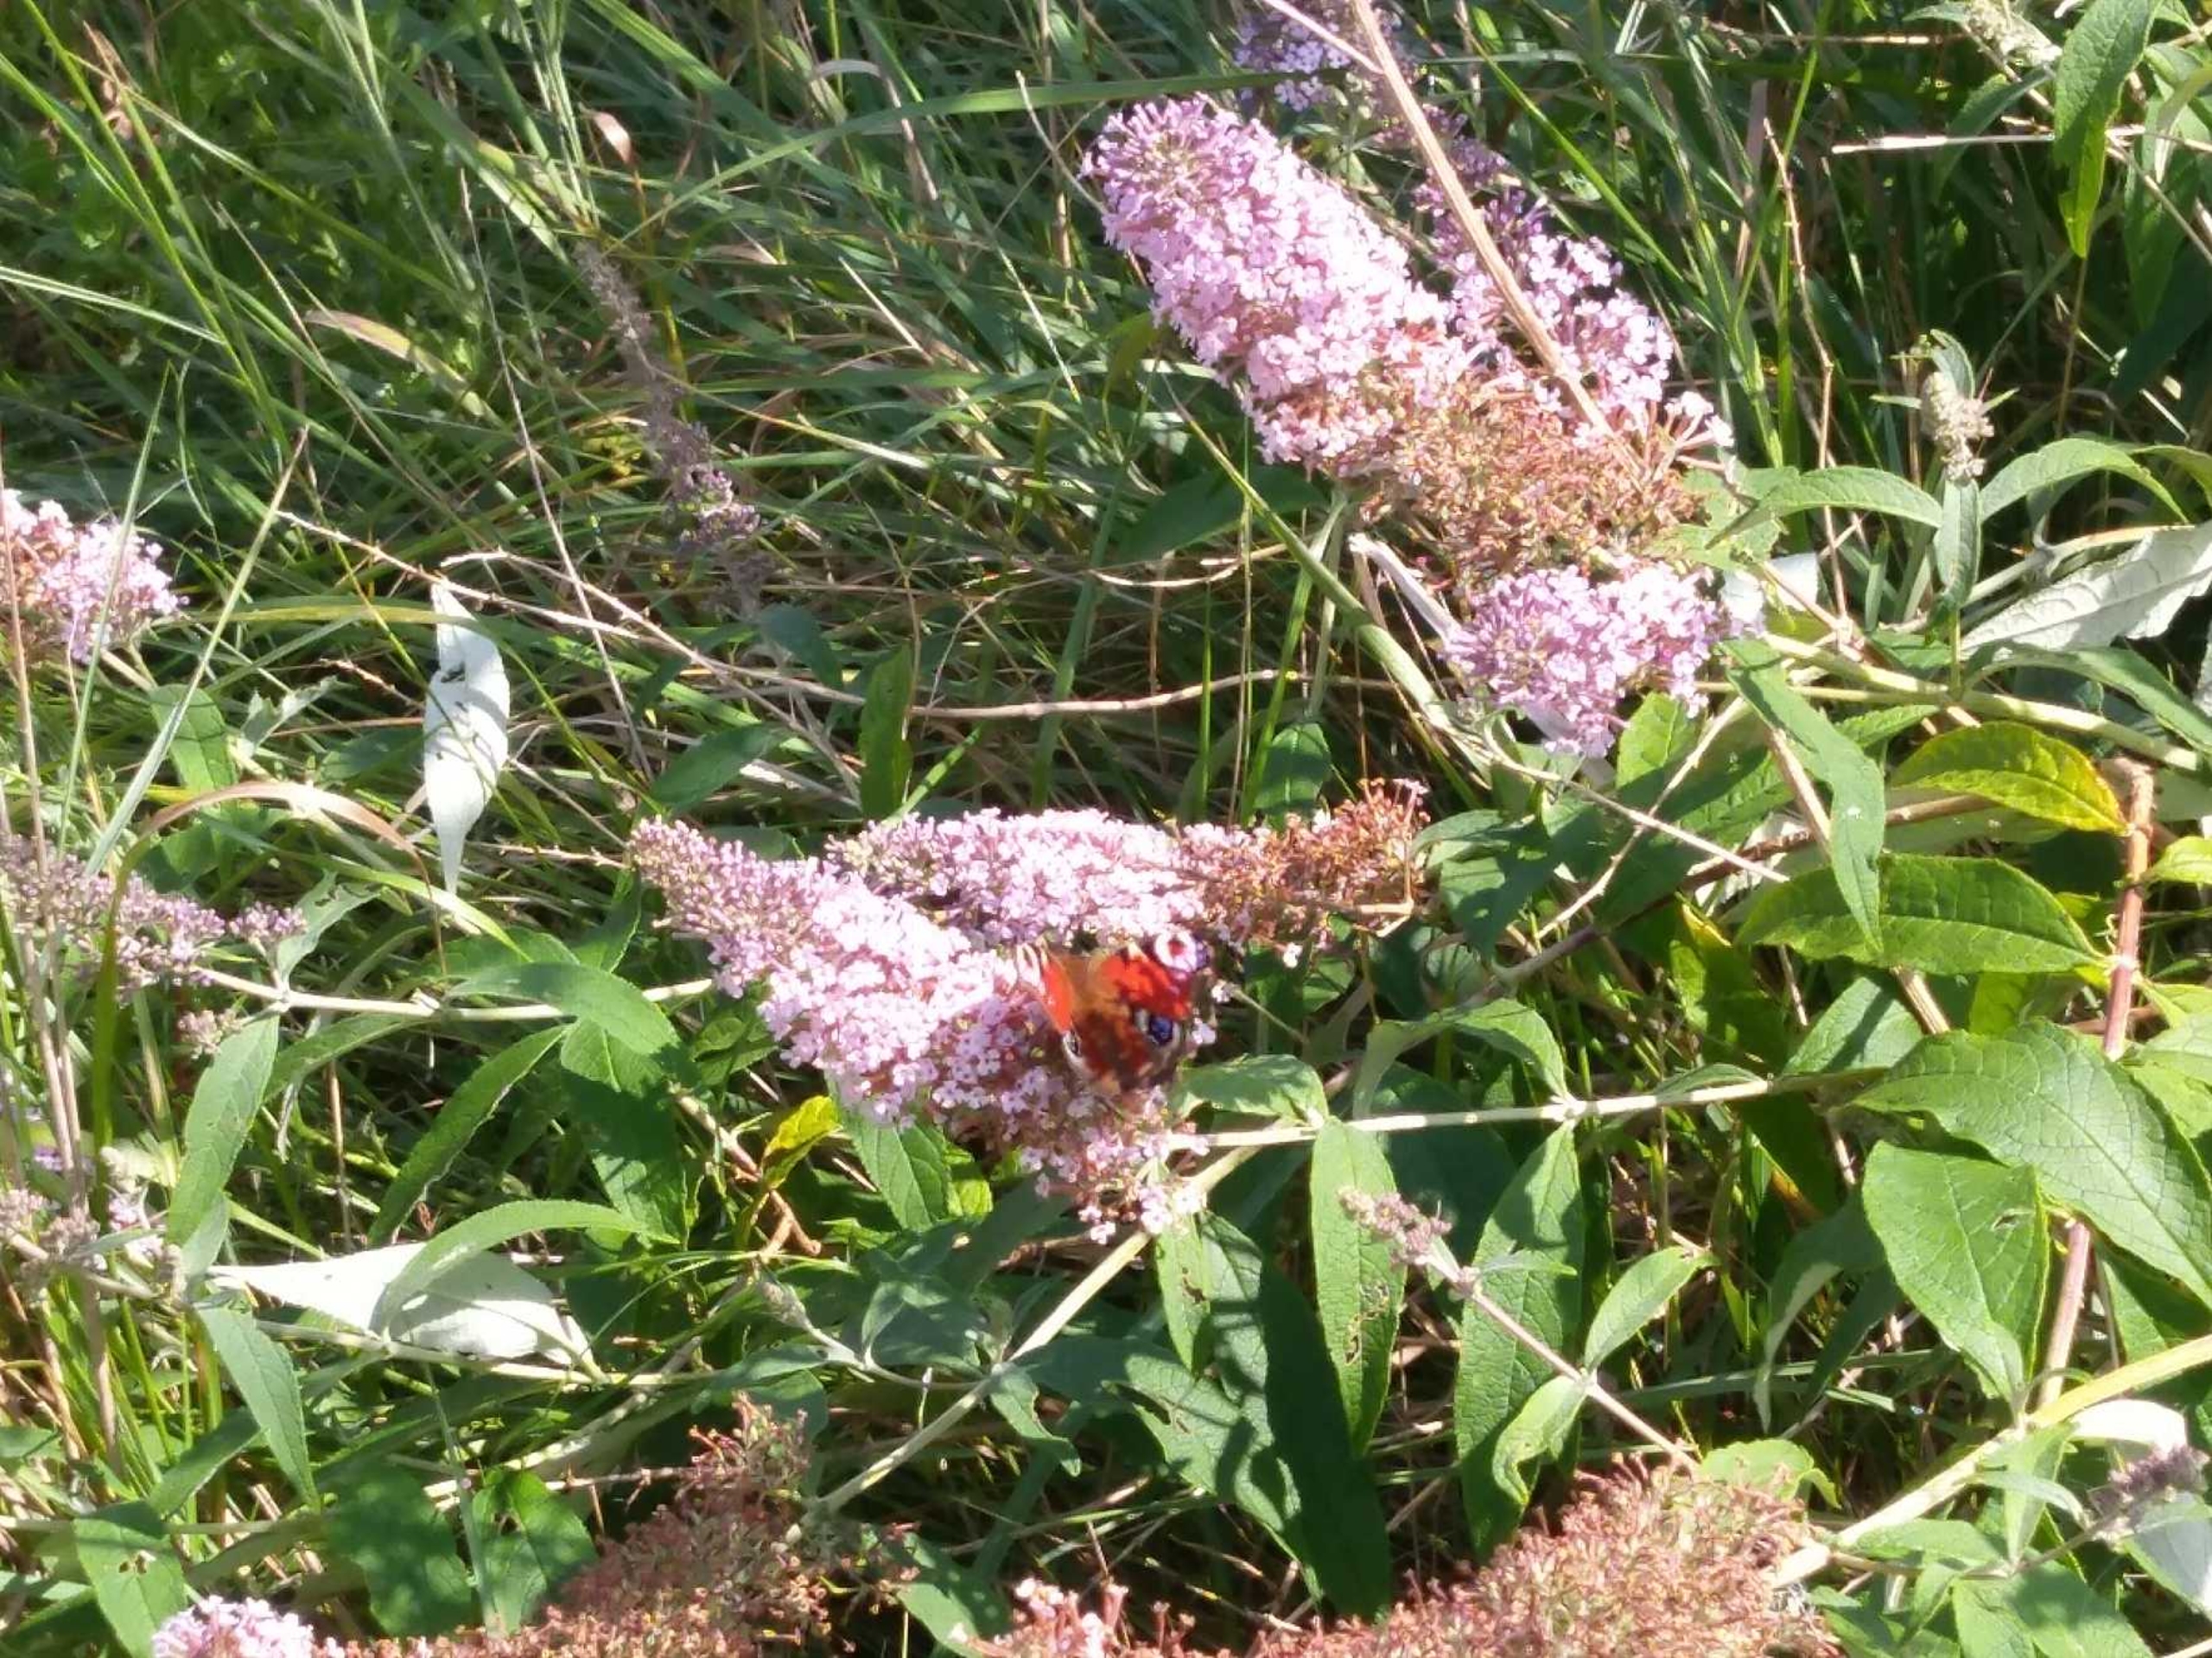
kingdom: Animalia
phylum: Arthropoda
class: Insecta
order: Lepidoptera
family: Nymphalidae
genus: Aglais
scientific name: Aglais io
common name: Dagpåfugleøje
